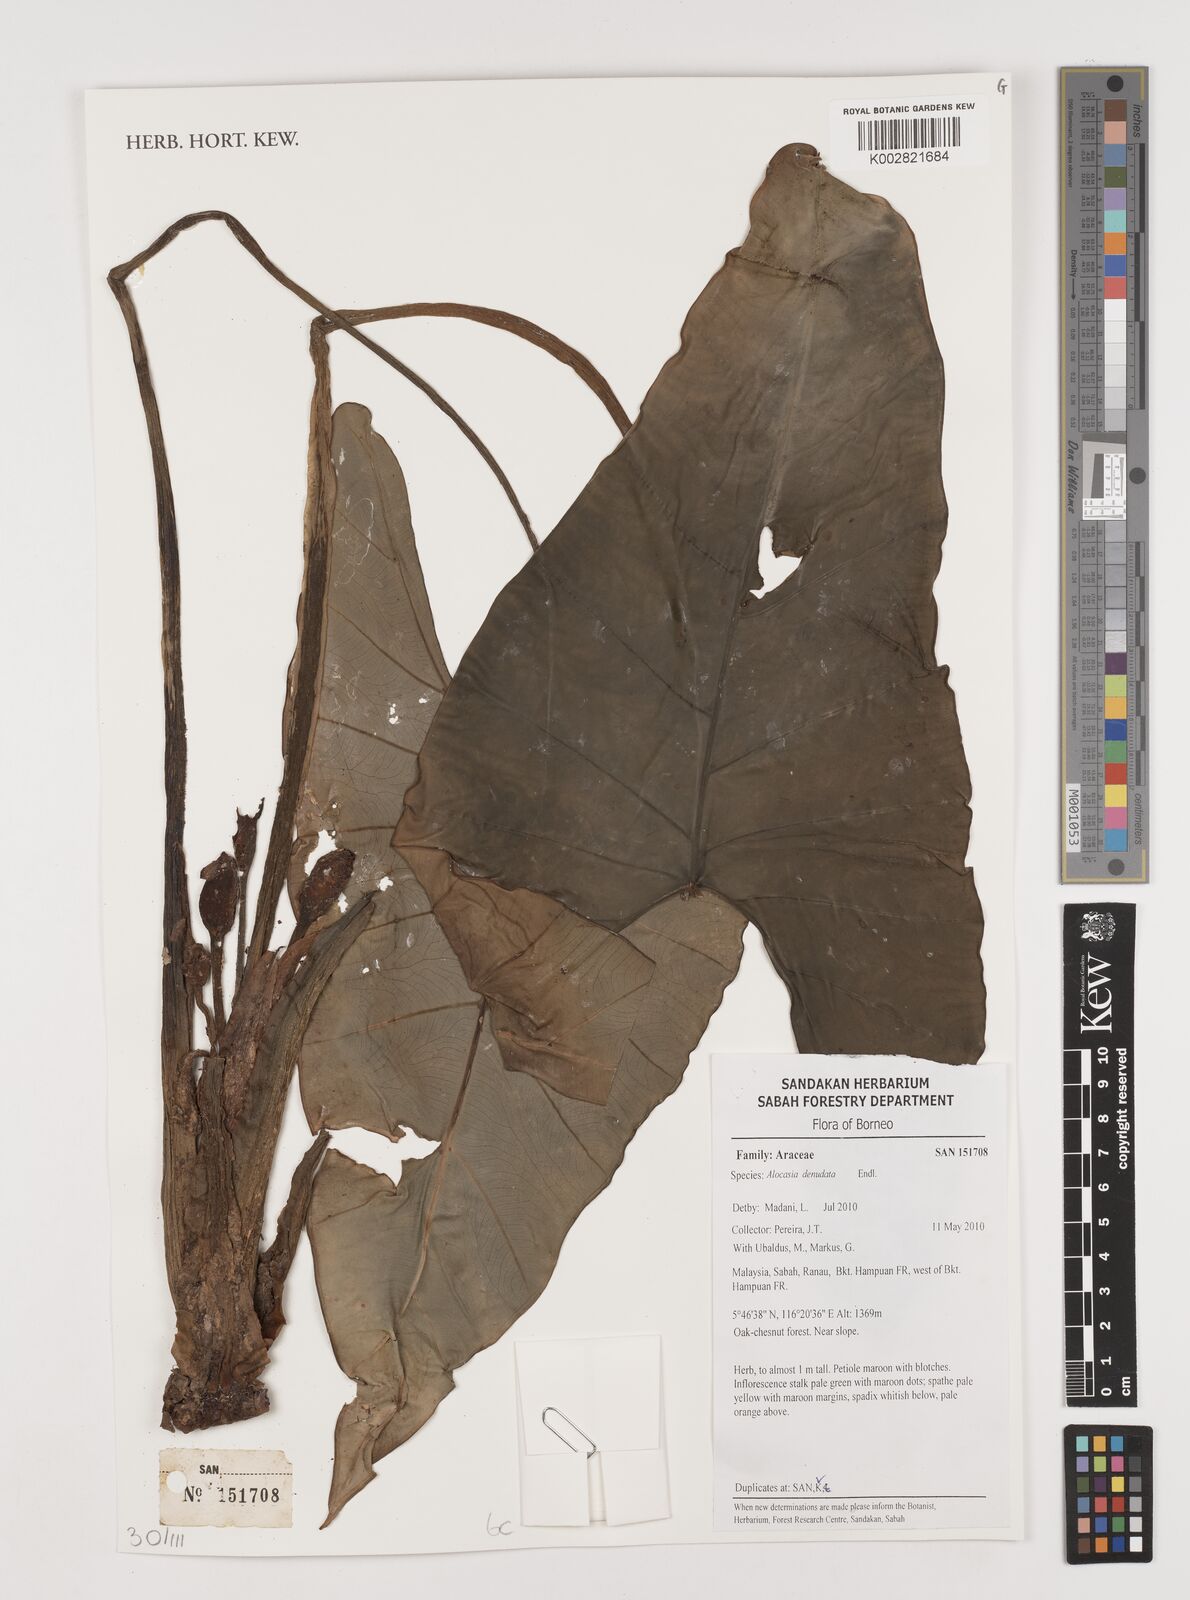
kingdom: Plantae
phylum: Tracheophyta
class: Liliopsida
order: Alismatales
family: Araceae
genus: Alocasia
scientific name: Alocasia longiloba
